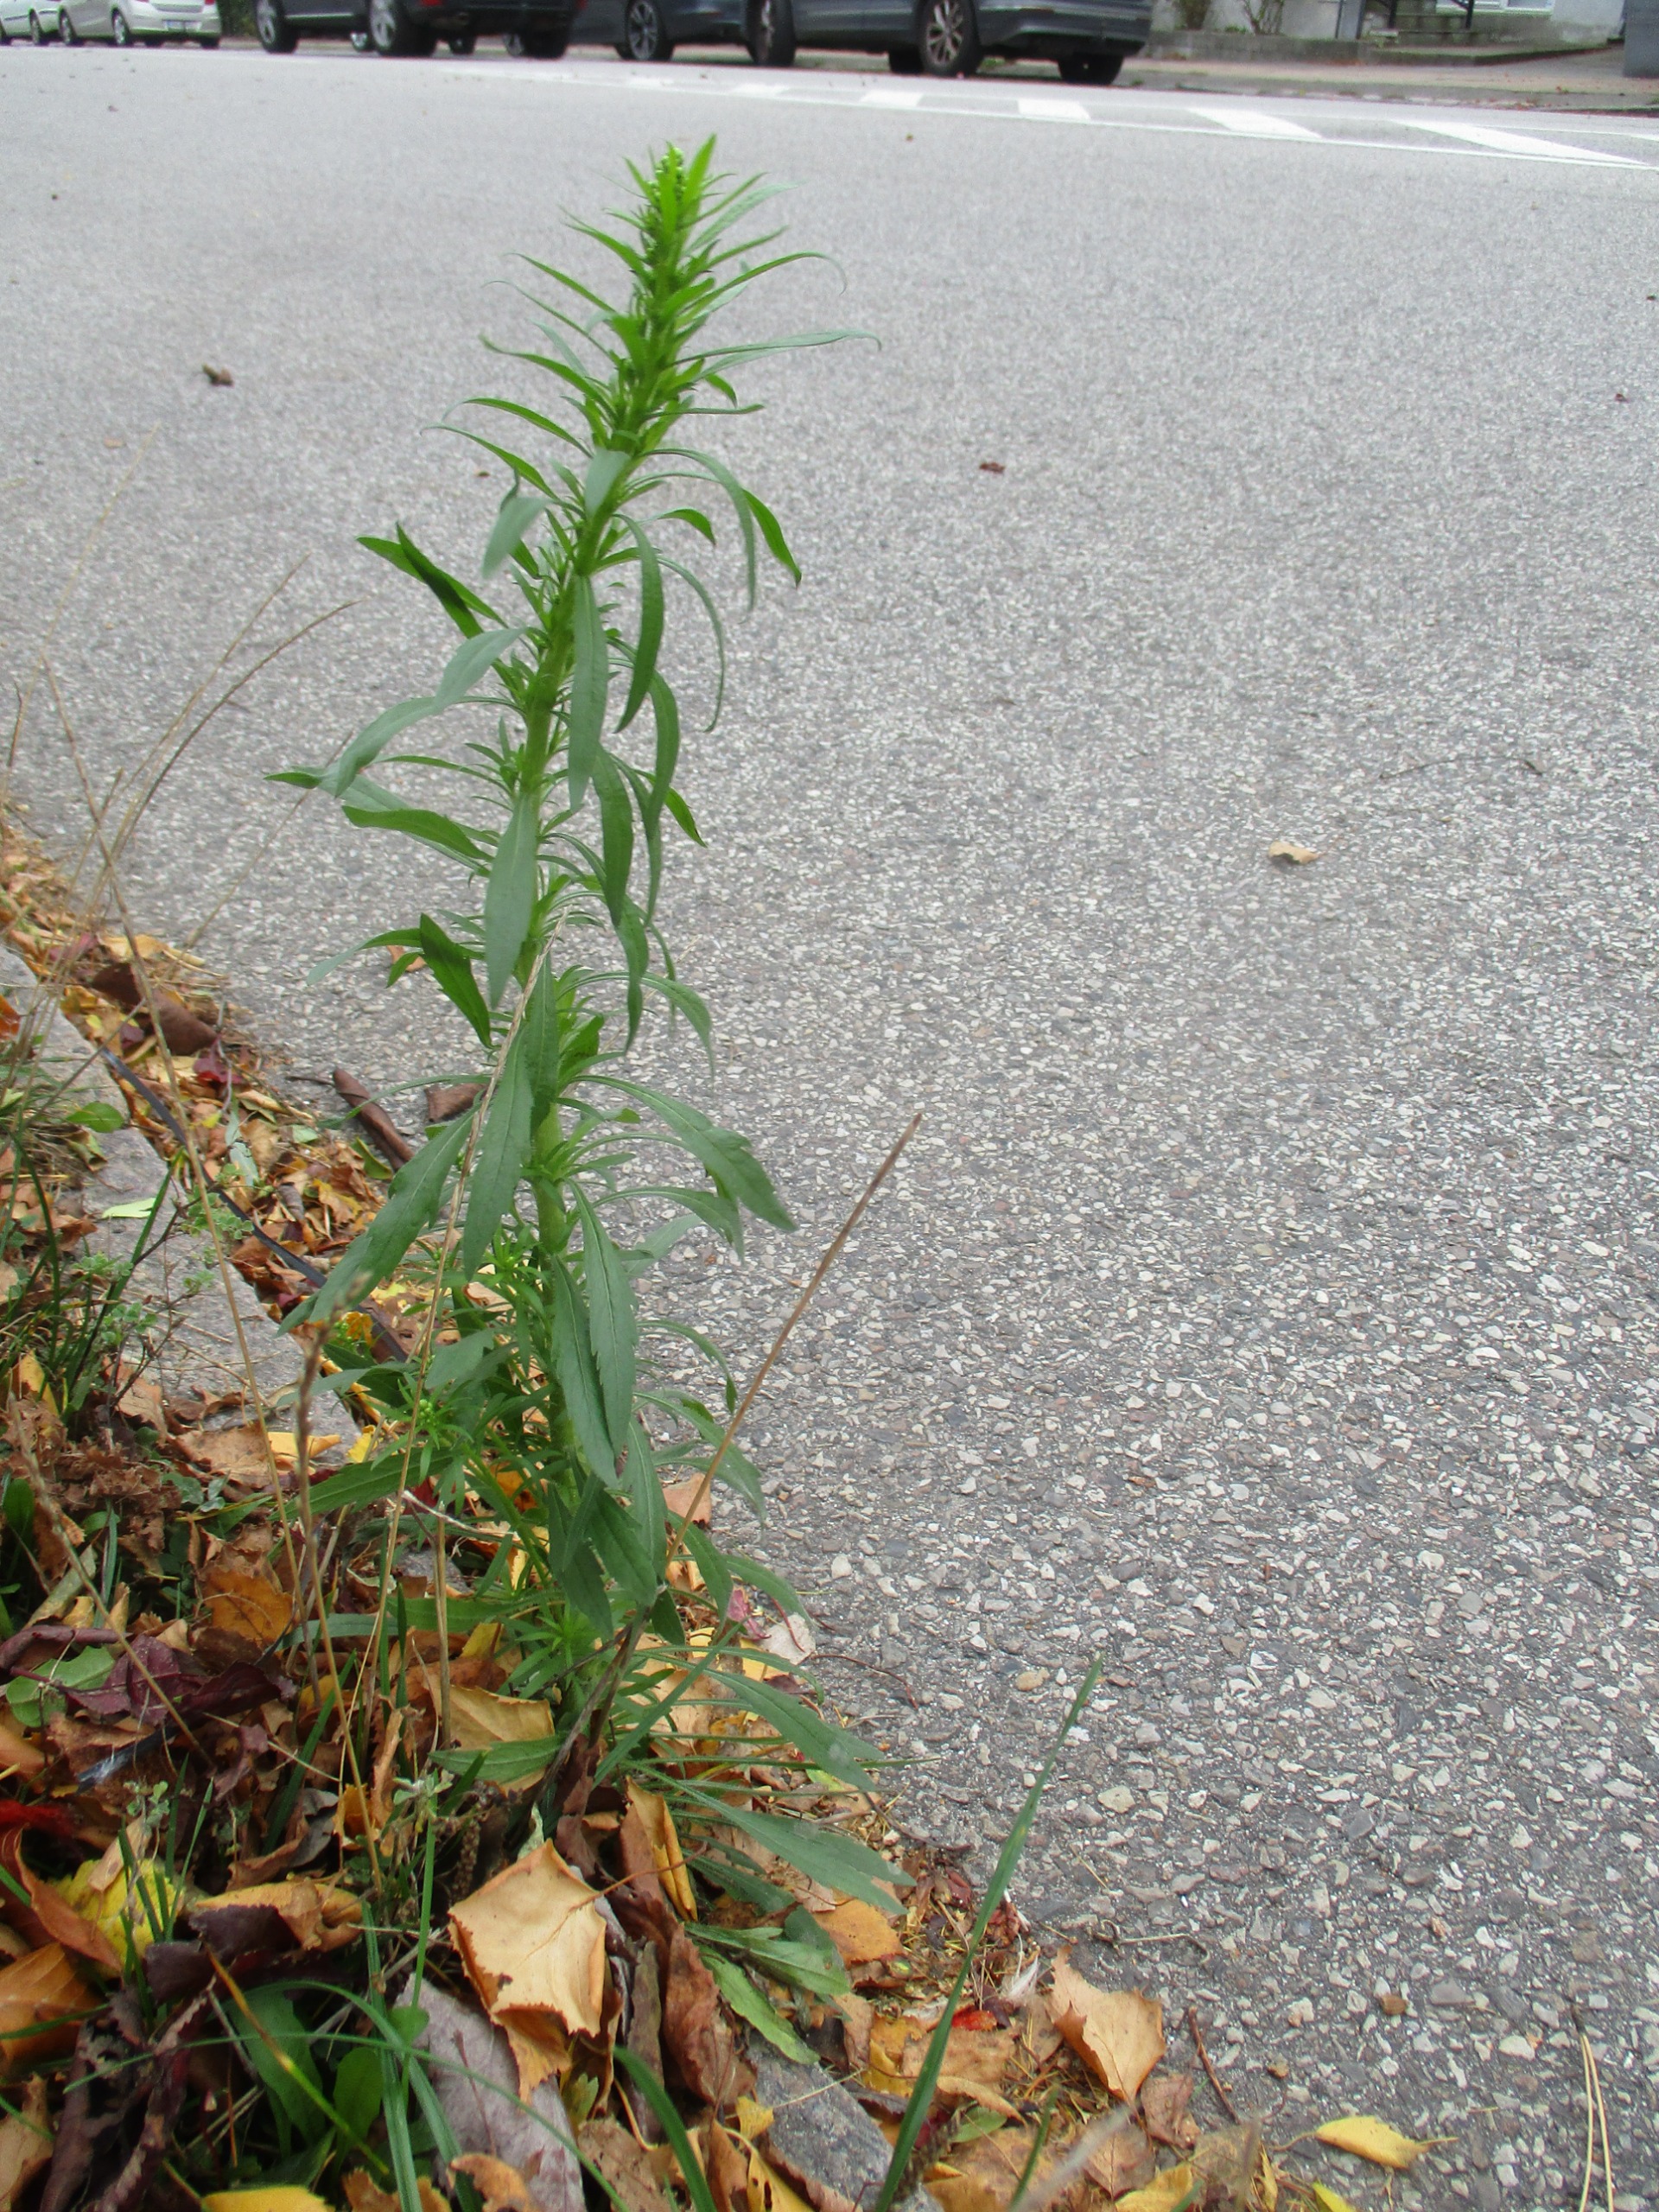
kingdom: Plantae
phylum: Tracheophyta
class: Magnoliopsida
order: Asterales
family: Asteraceae
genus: Erigeron
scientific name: Erigeron canadensis
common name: Kanadisk bakkestjerne
